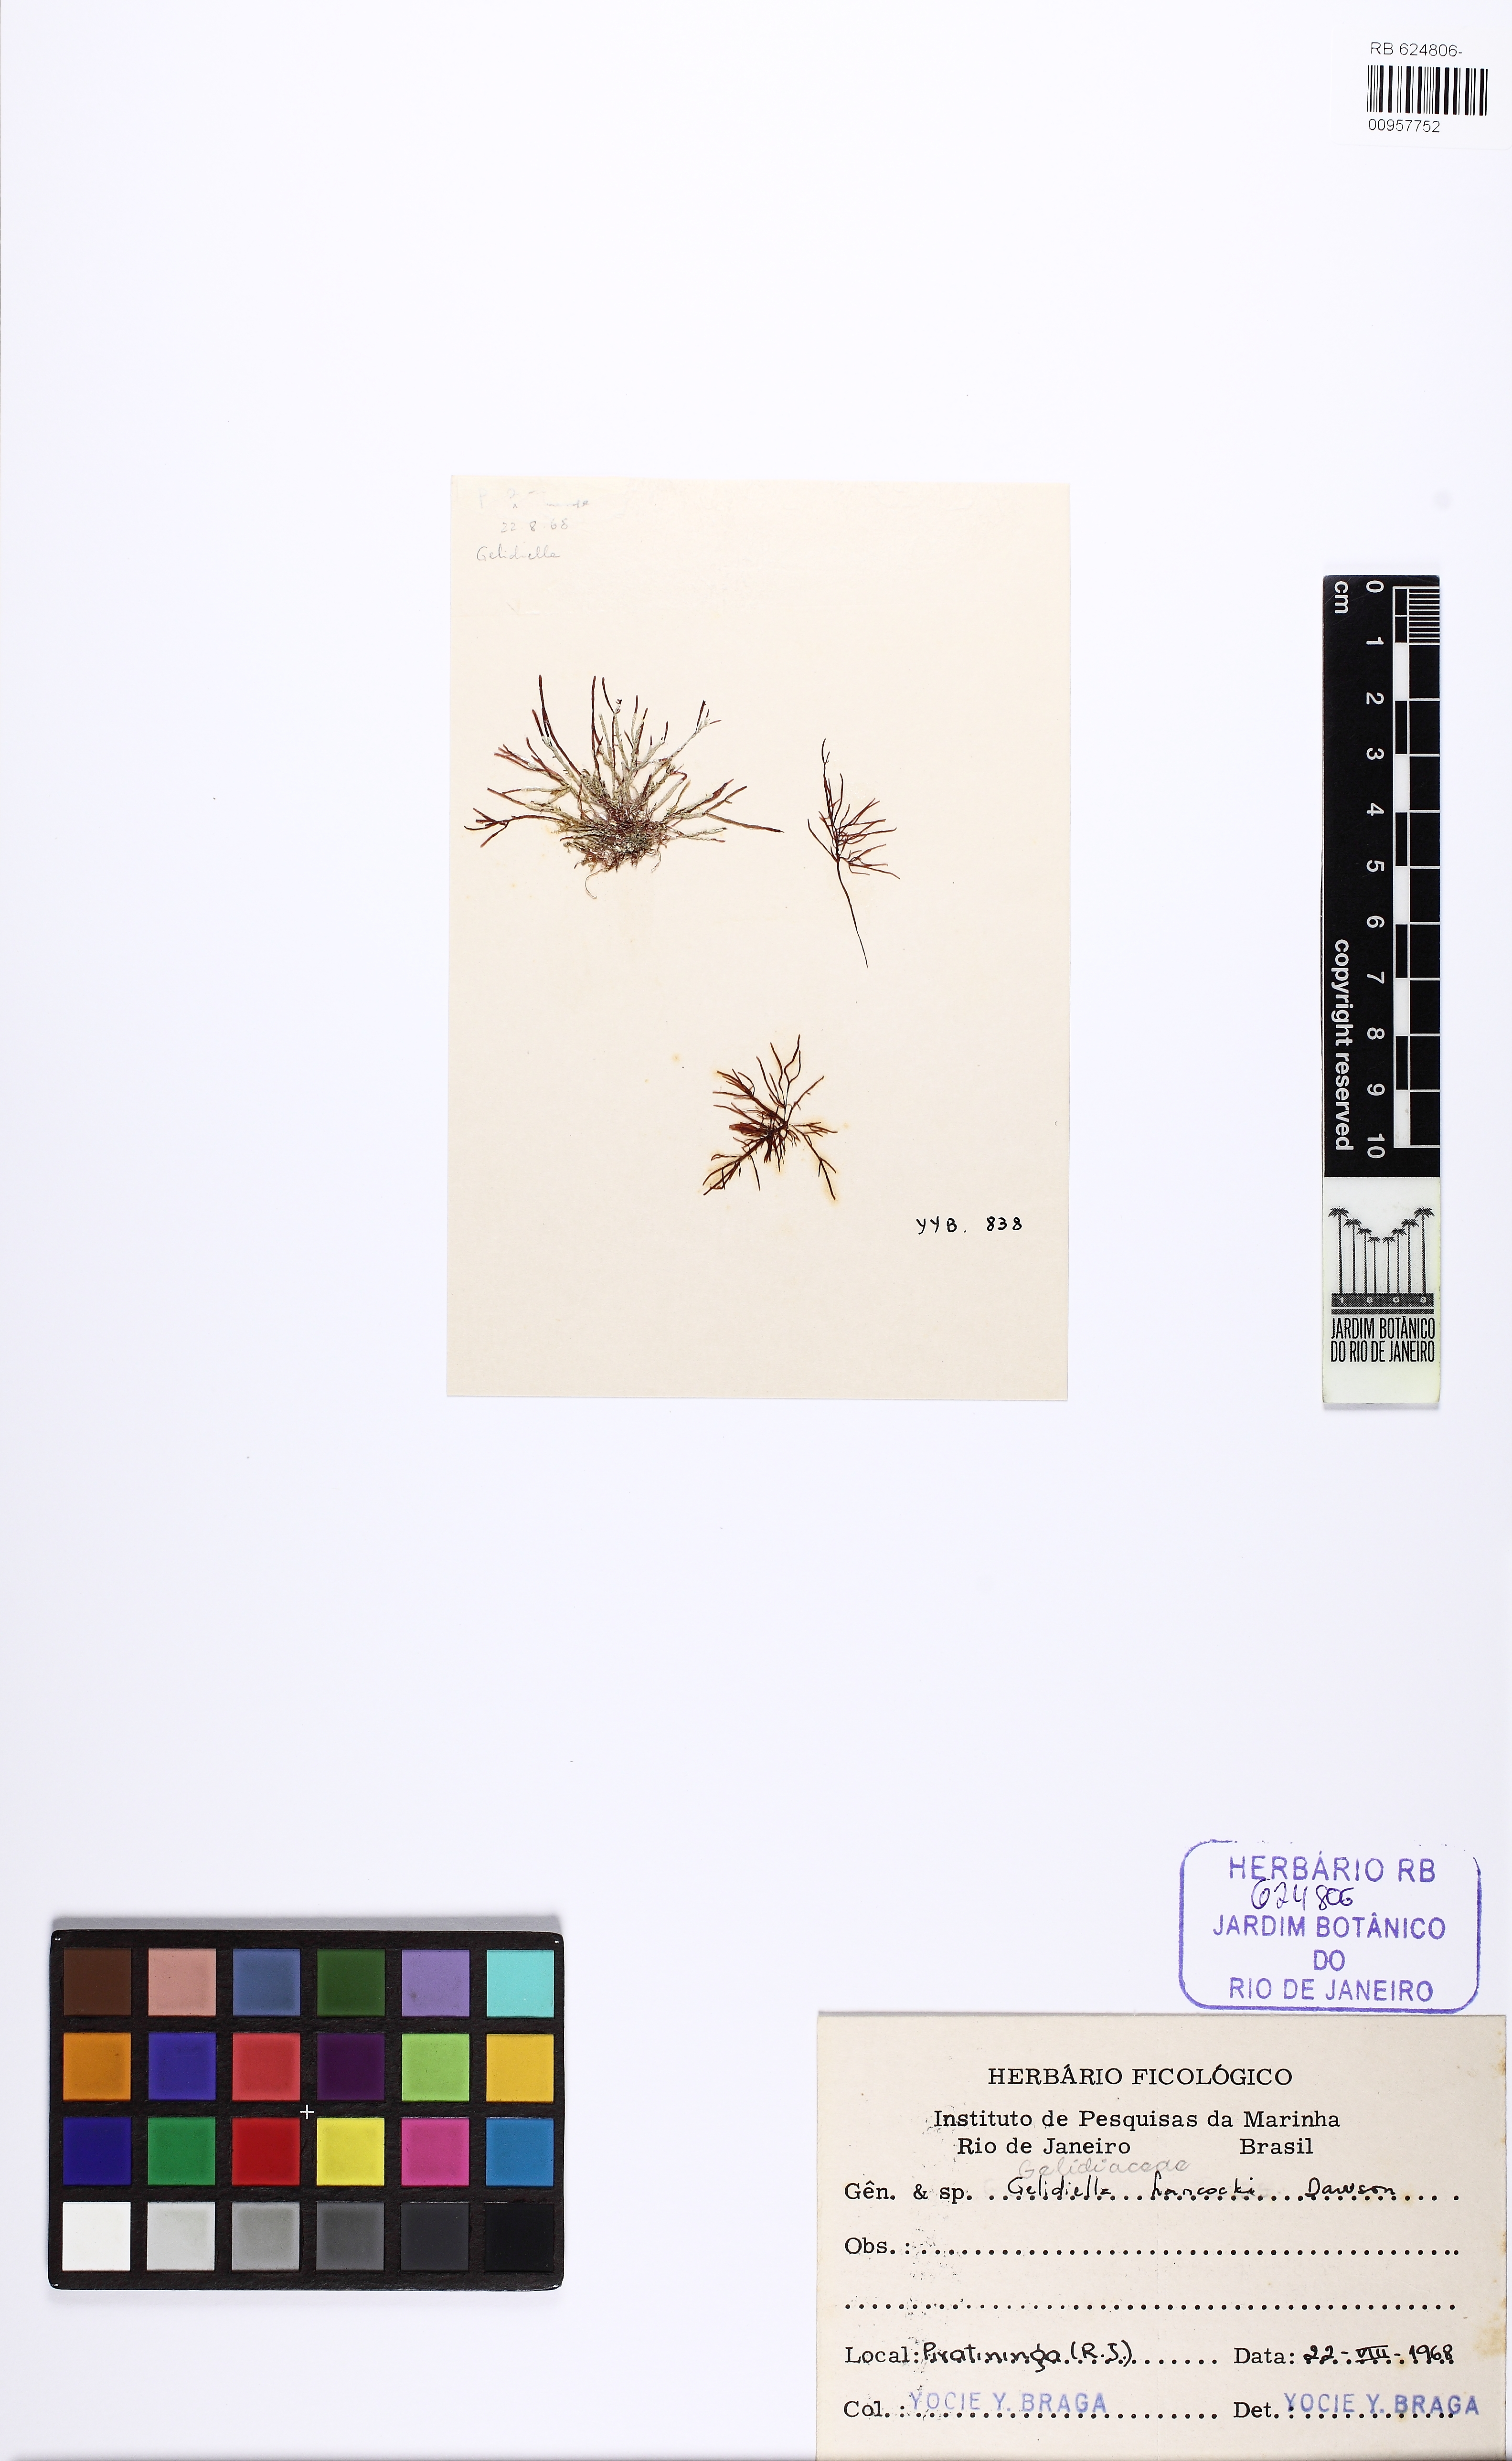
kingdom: Plantae
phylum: Rhodophyta
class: Florideophyceae
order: Gelidiales
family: Gelidiellaceae
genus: Gelidiella
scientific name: Gelidiella hancockii
